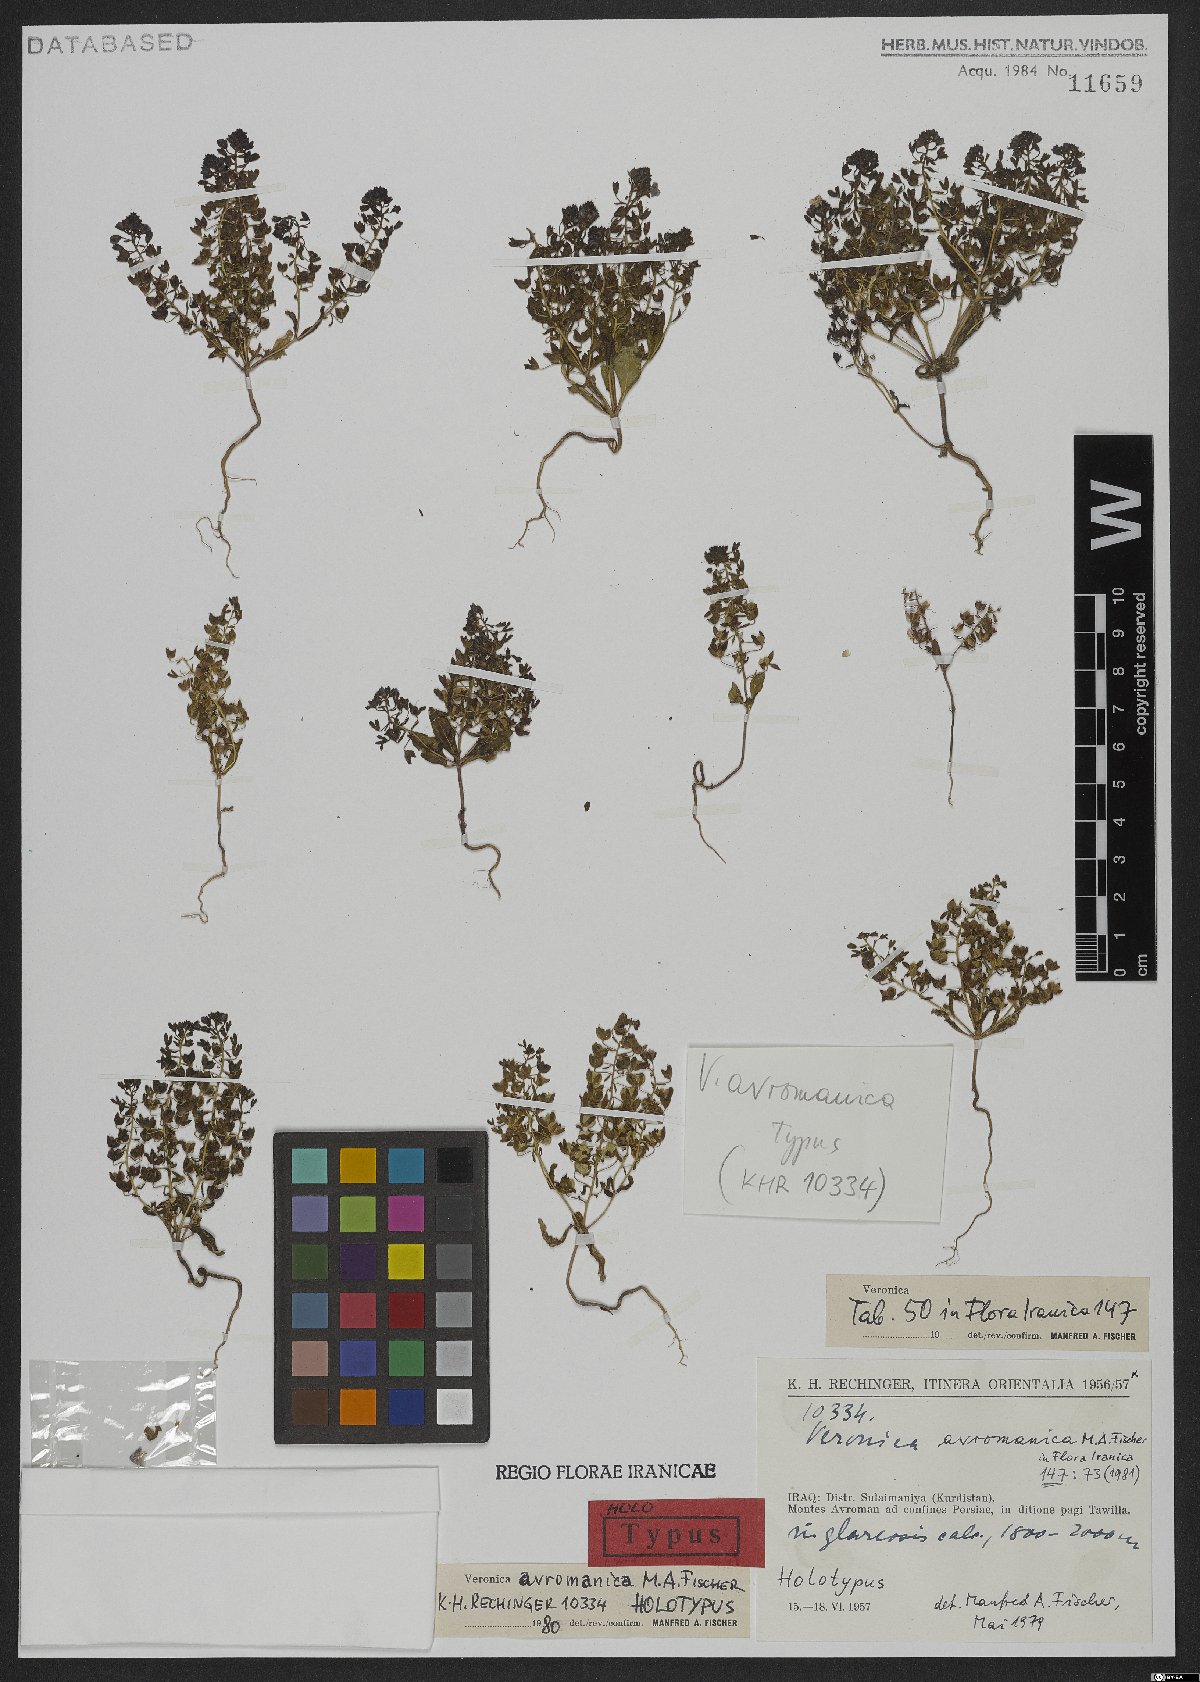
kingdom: Plantae
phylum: Tracheophyta
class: Magnoliopsida
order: Lamiales
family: Plantaginaceae
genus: Veronica
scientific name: Veronica avromanica
